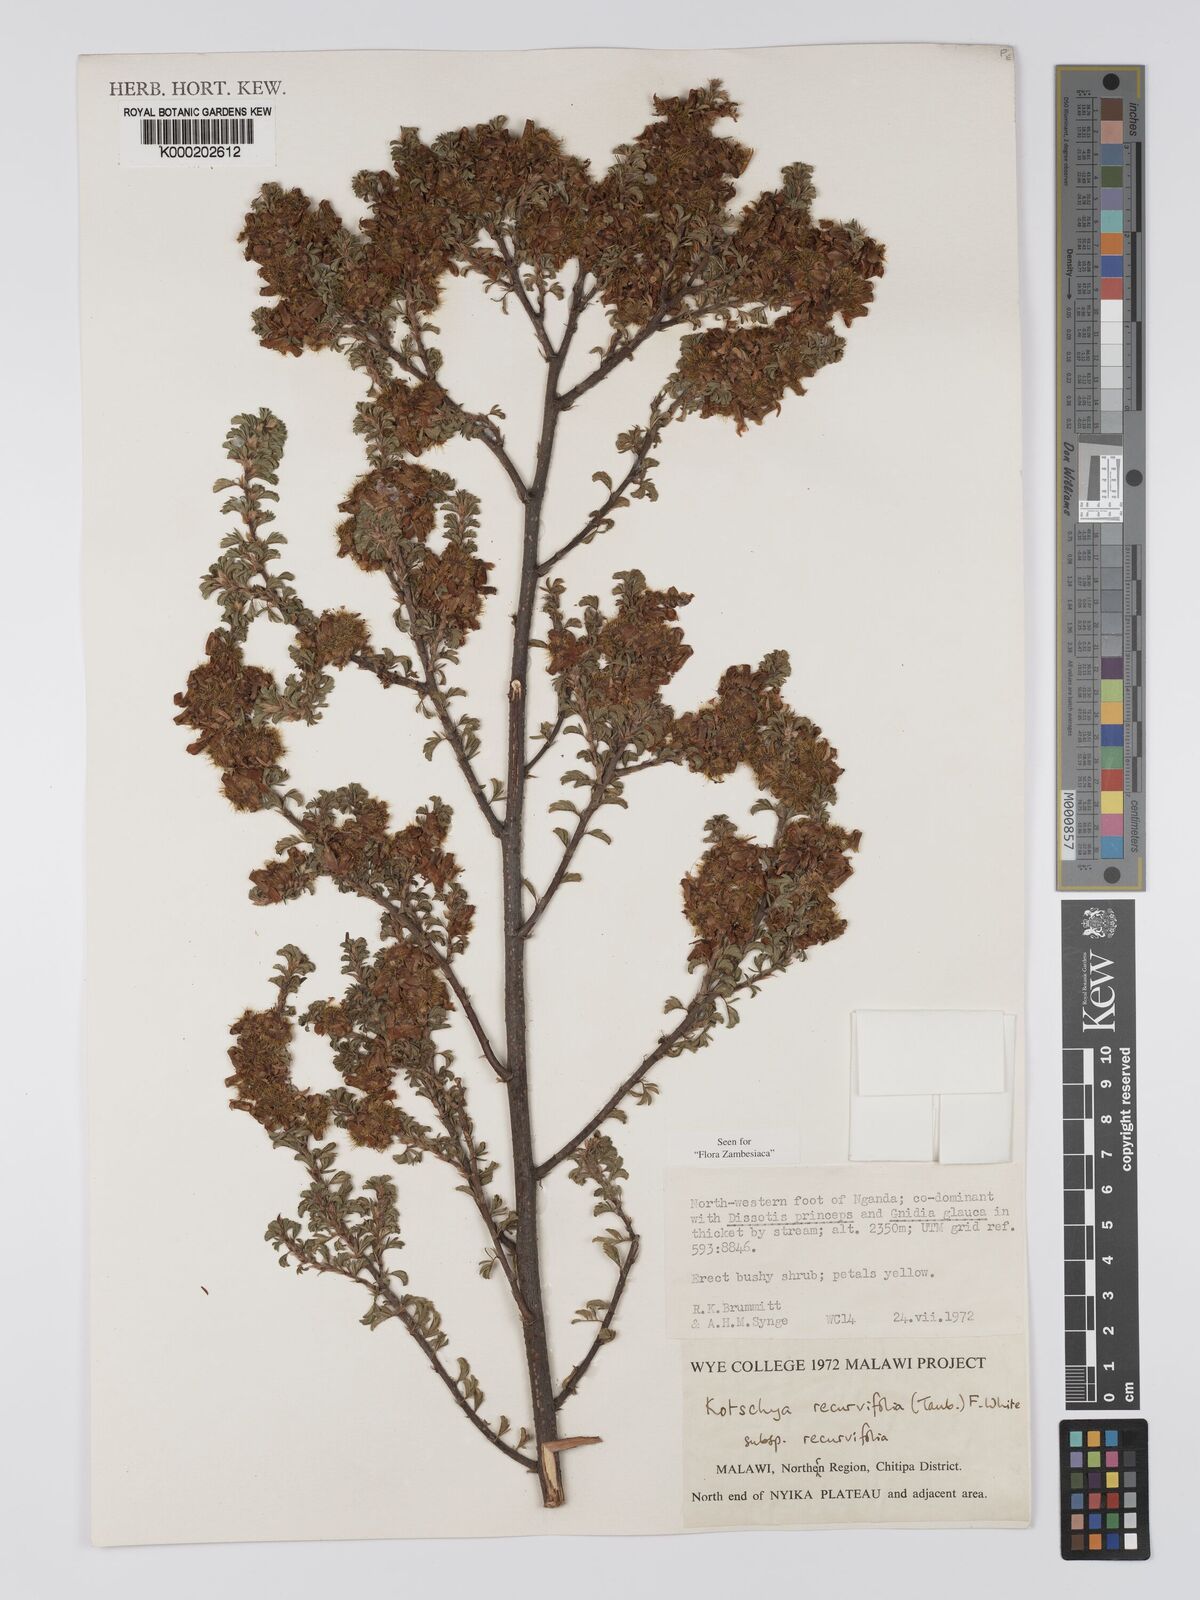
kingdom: Plantae
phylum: Tracheophyta
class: Magnoliopsida
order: Fabales
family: Fabaceae
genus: Kotschya
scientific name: Kotschya recurvifolia
